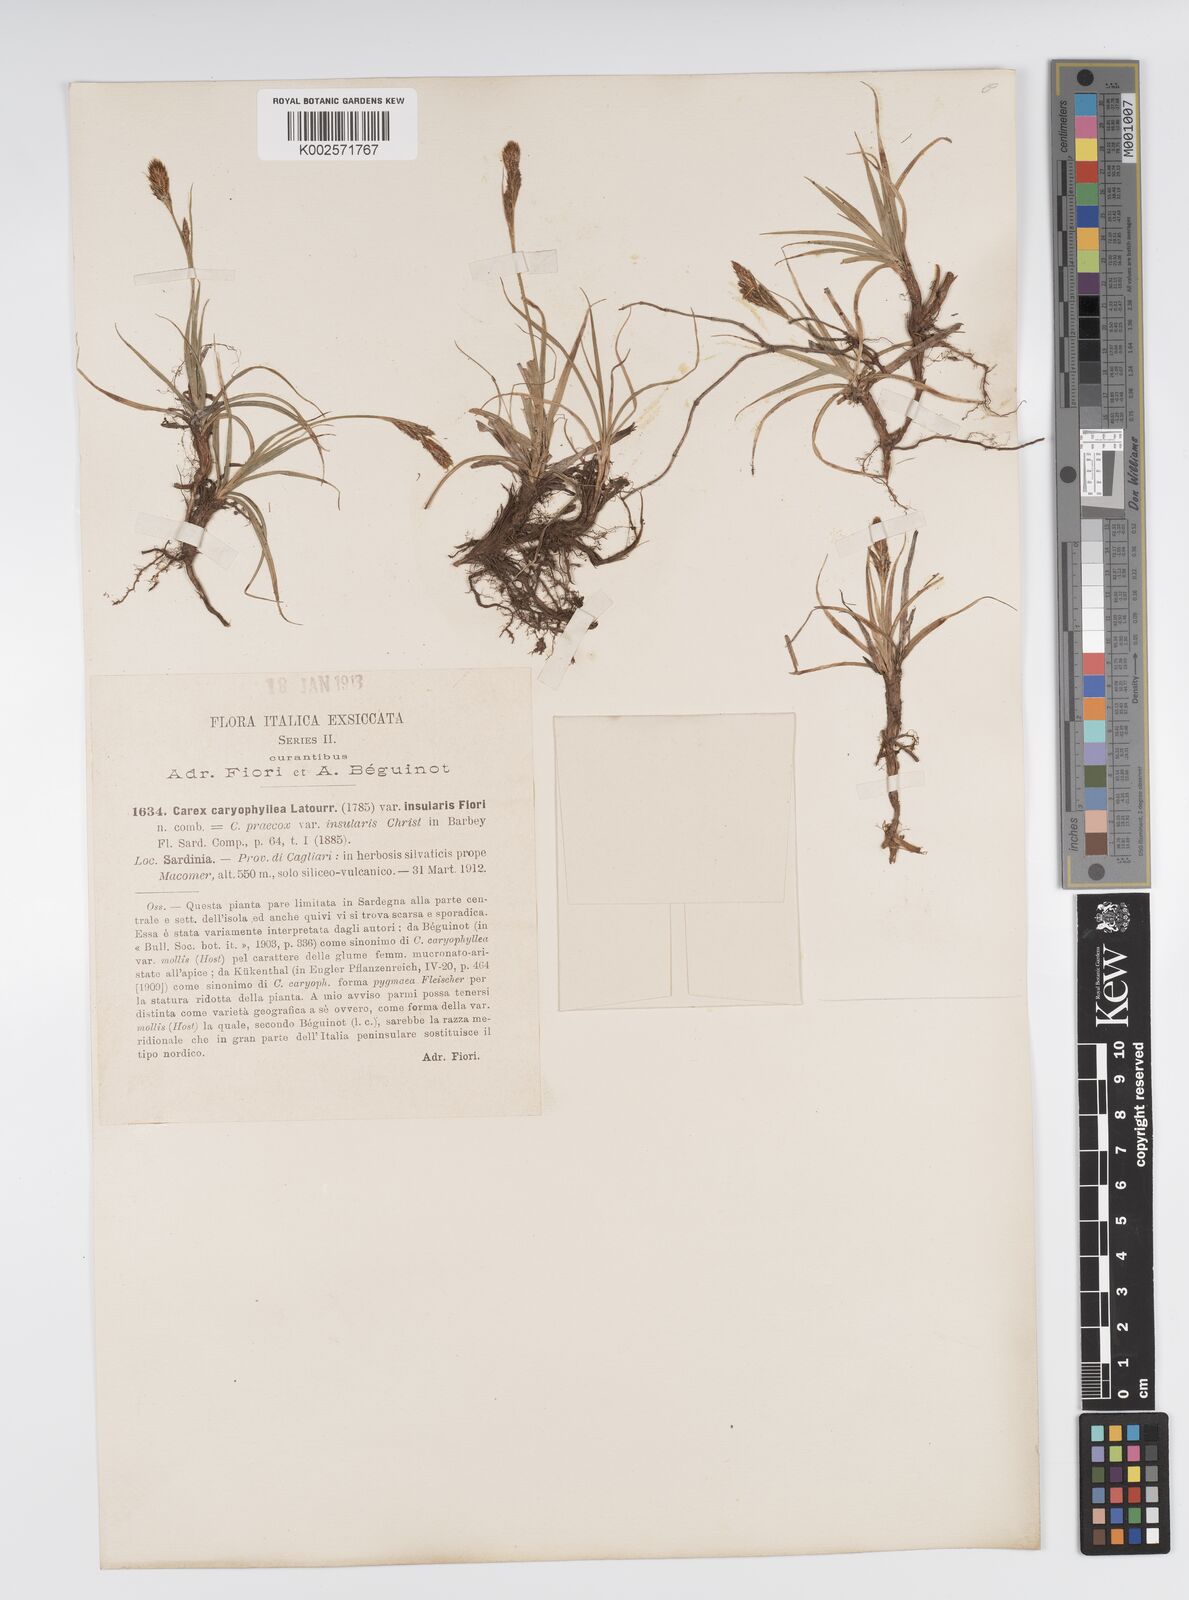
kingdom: Plantae
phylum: Tracheophyta
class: Liliopsida
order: Poales
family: Cyperaceae
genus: Carex
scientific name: Carex caryophyllea
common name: Spring sedge
